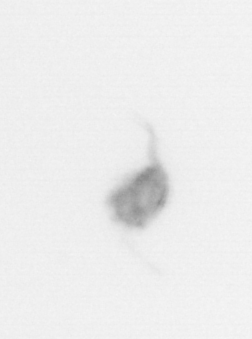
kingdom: Animalia
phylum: Arthropoda
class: Copepoda
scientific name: Copepoda
